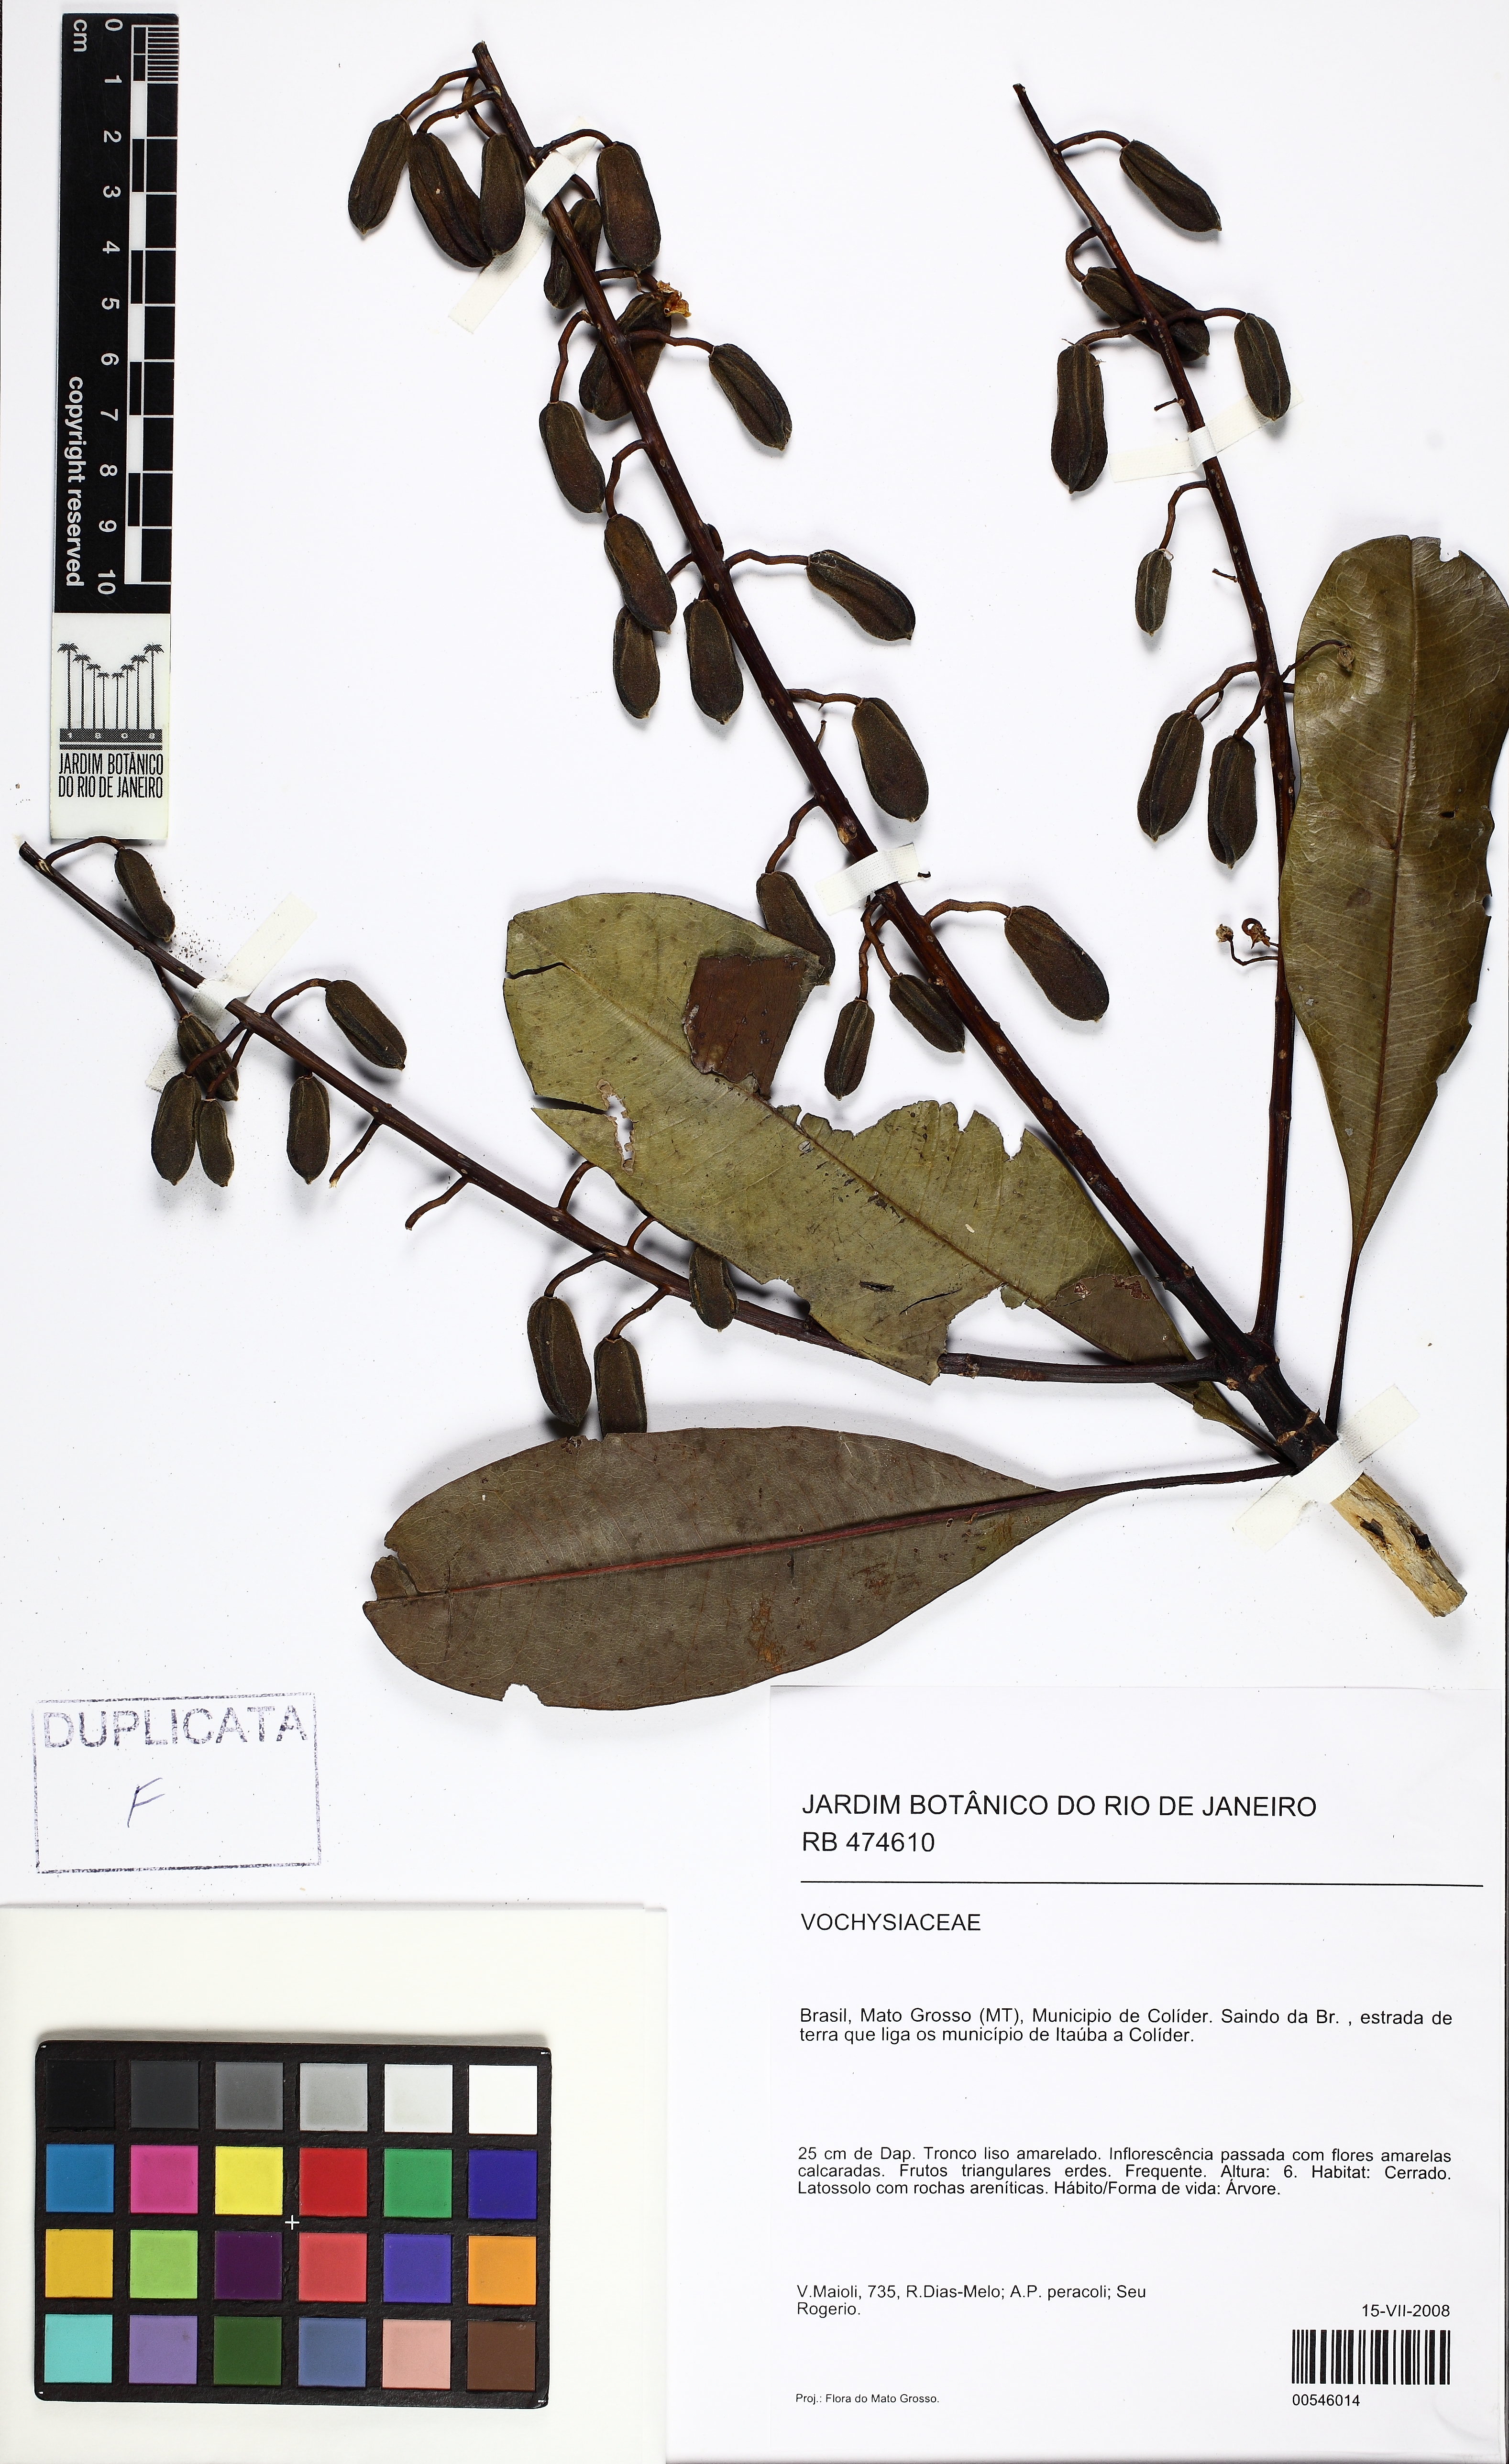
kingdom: Plantae
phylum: Tracheophyta
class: Magnoliopsida
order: Myrtales
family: Vochysiaceae
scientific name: Vochysiaceae
